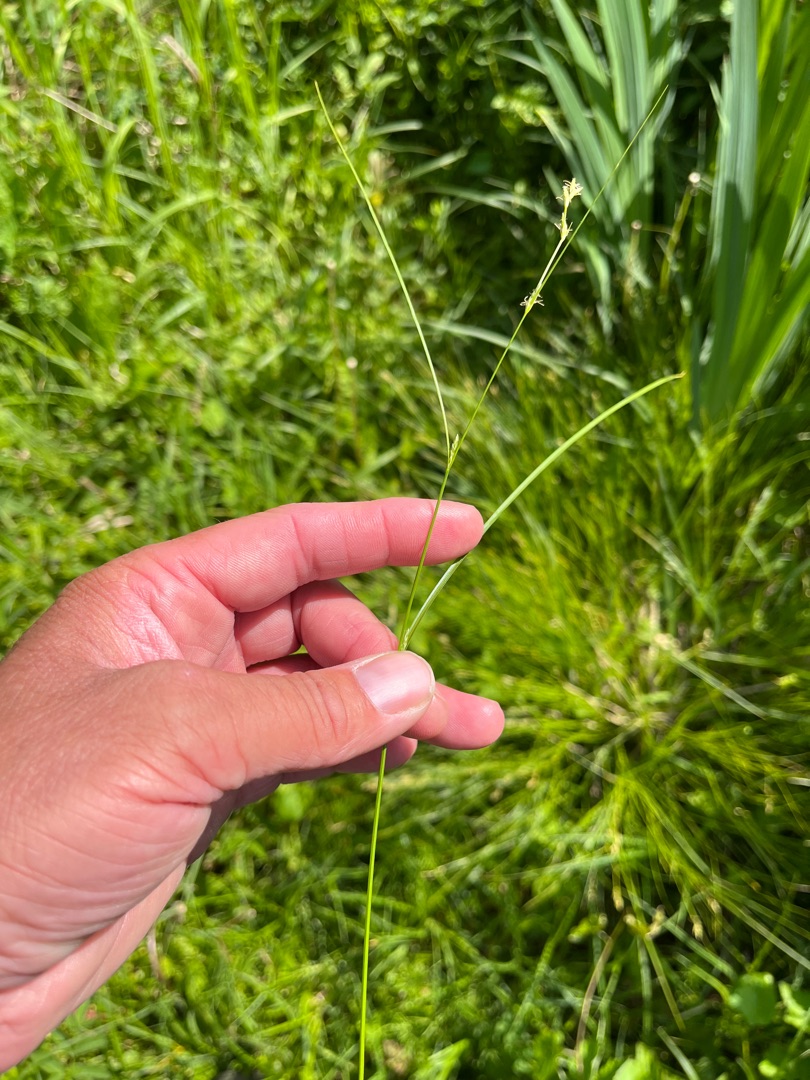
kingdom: Plantae
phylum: Tracheophyta
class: Liliopsida
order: Poales
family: Cyperaceae
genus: Carex
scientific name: Carex remota
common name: Akselblomstret star
